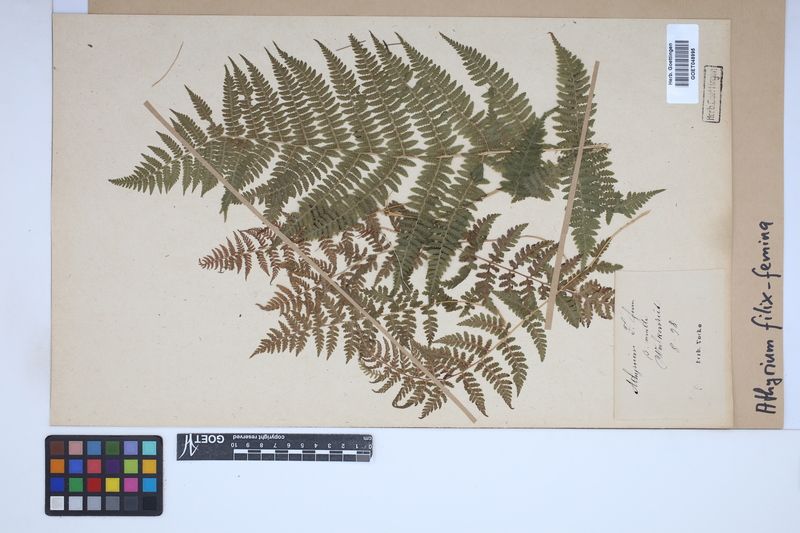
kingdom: Plantae
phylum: Tracheophyta
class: Polypodiopsida
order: Polypodiales
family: Athyriaceae
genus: Athyrium
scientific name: Athyrium filix-femina
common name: Lady fern
